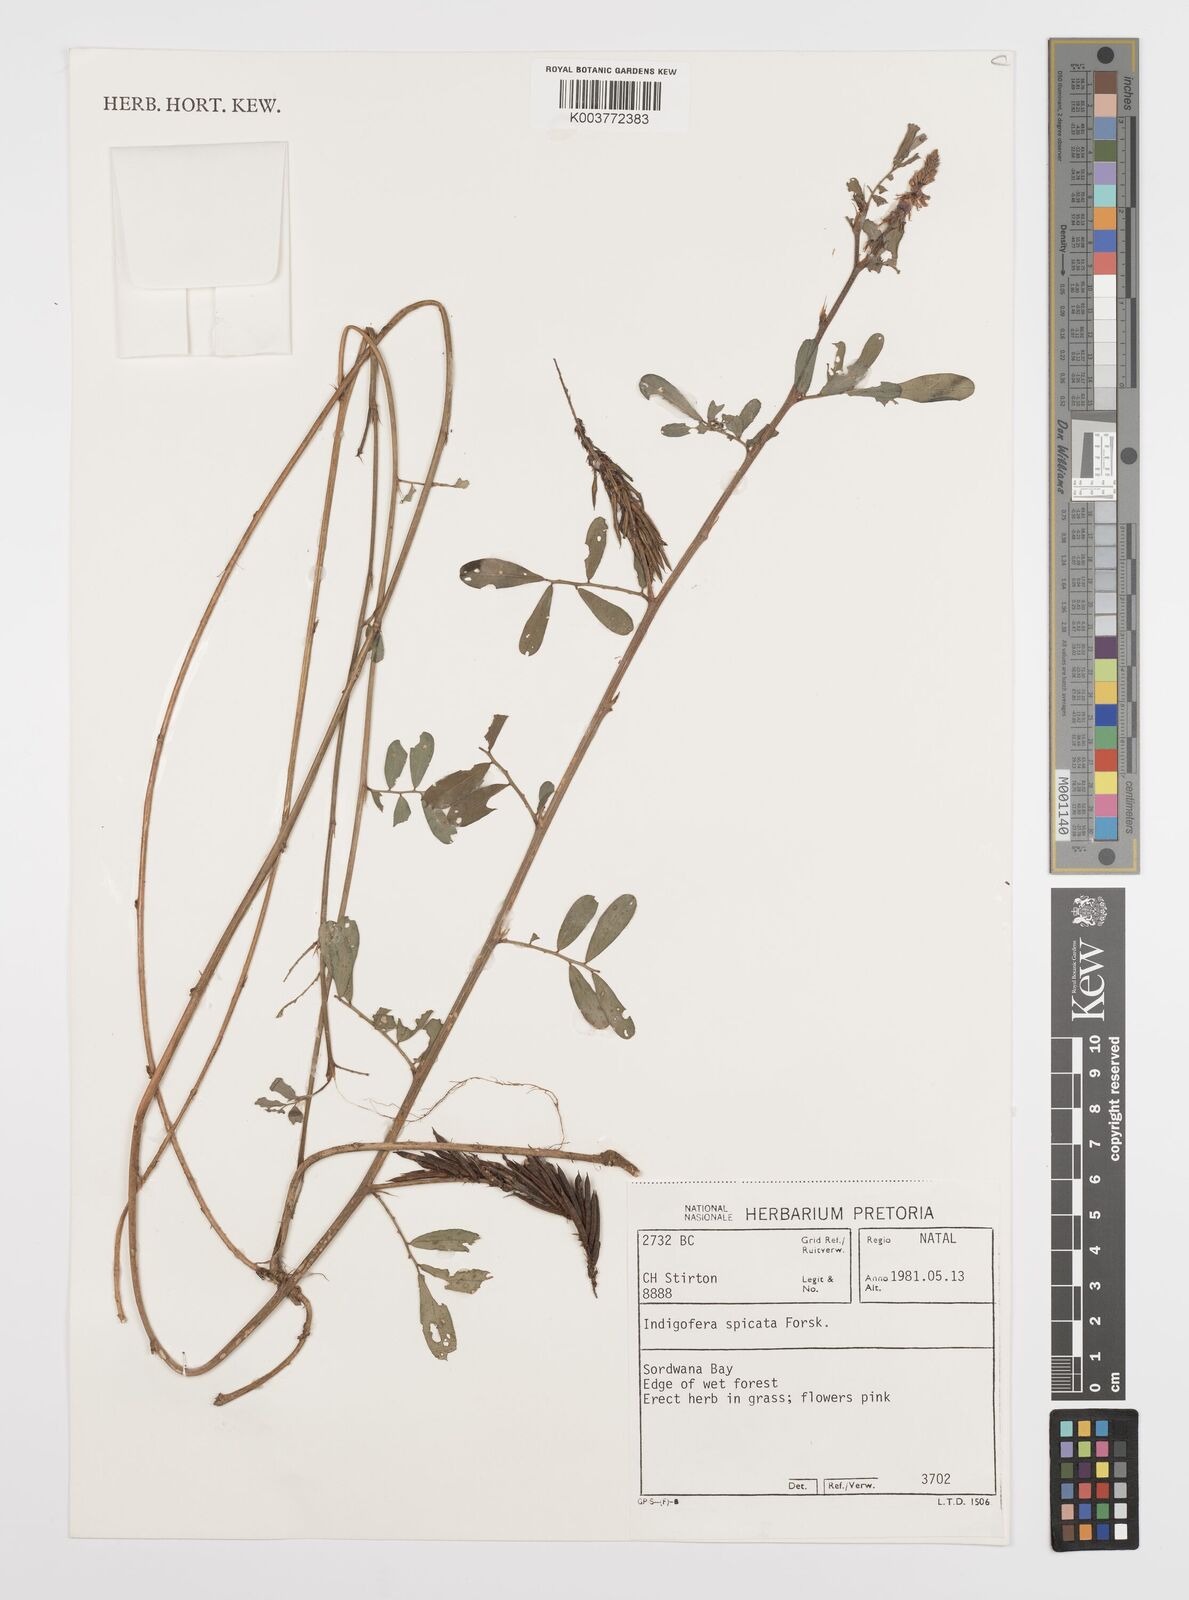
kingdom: Plantae
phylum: Tracheophyta
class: Magnoliopsida
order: Fabales
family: Fabaceae
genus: Indigofera
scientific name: Indigofera hendecaphylla
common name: Trailing indigo
